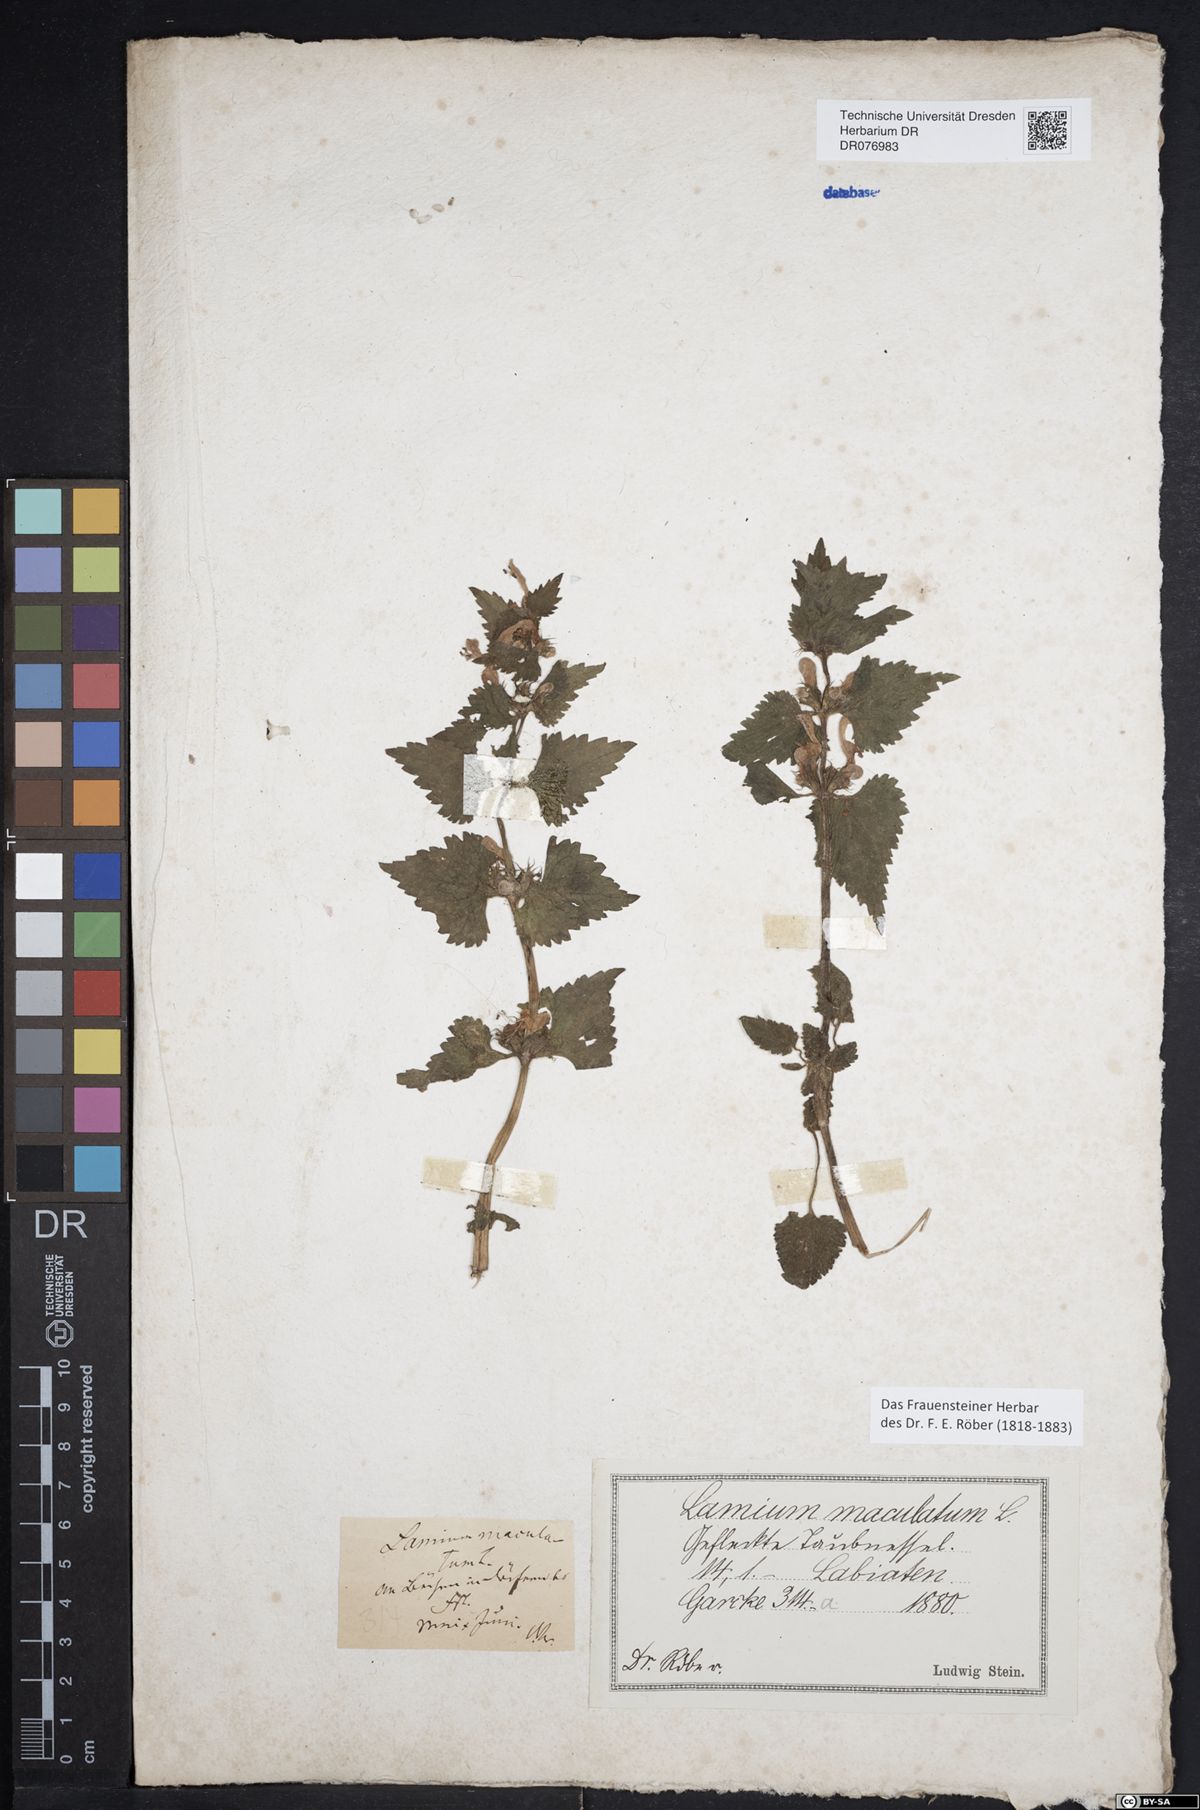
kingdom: Plantae
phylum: Tracheophyta
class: Magnoliopsida
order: Lamiales
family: Lamiaceae
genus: Lamium
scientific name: Lamium maculatum
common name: Spotted dead-nettle
